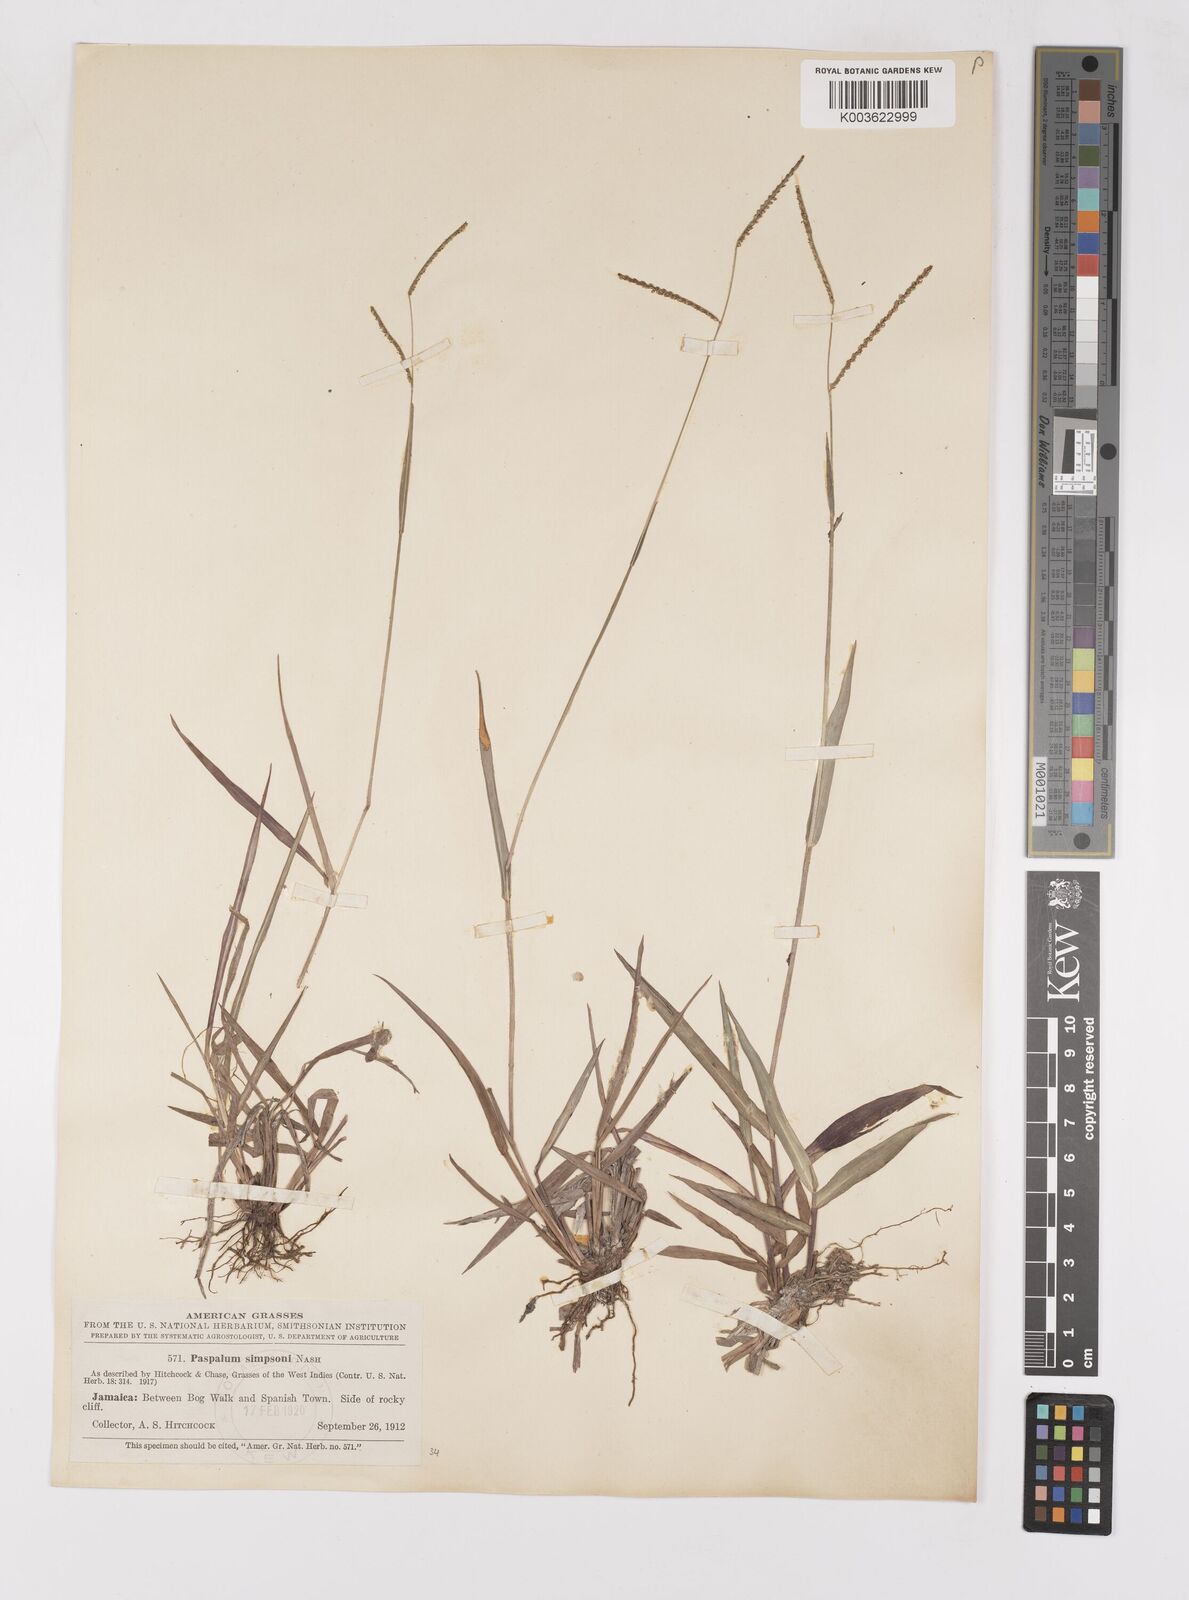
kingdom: Plantae
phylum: Tracheophyta
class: Liliopsida
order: Poales
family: Poaceae
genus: Paspalum
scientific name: Paspalum blodgettii
